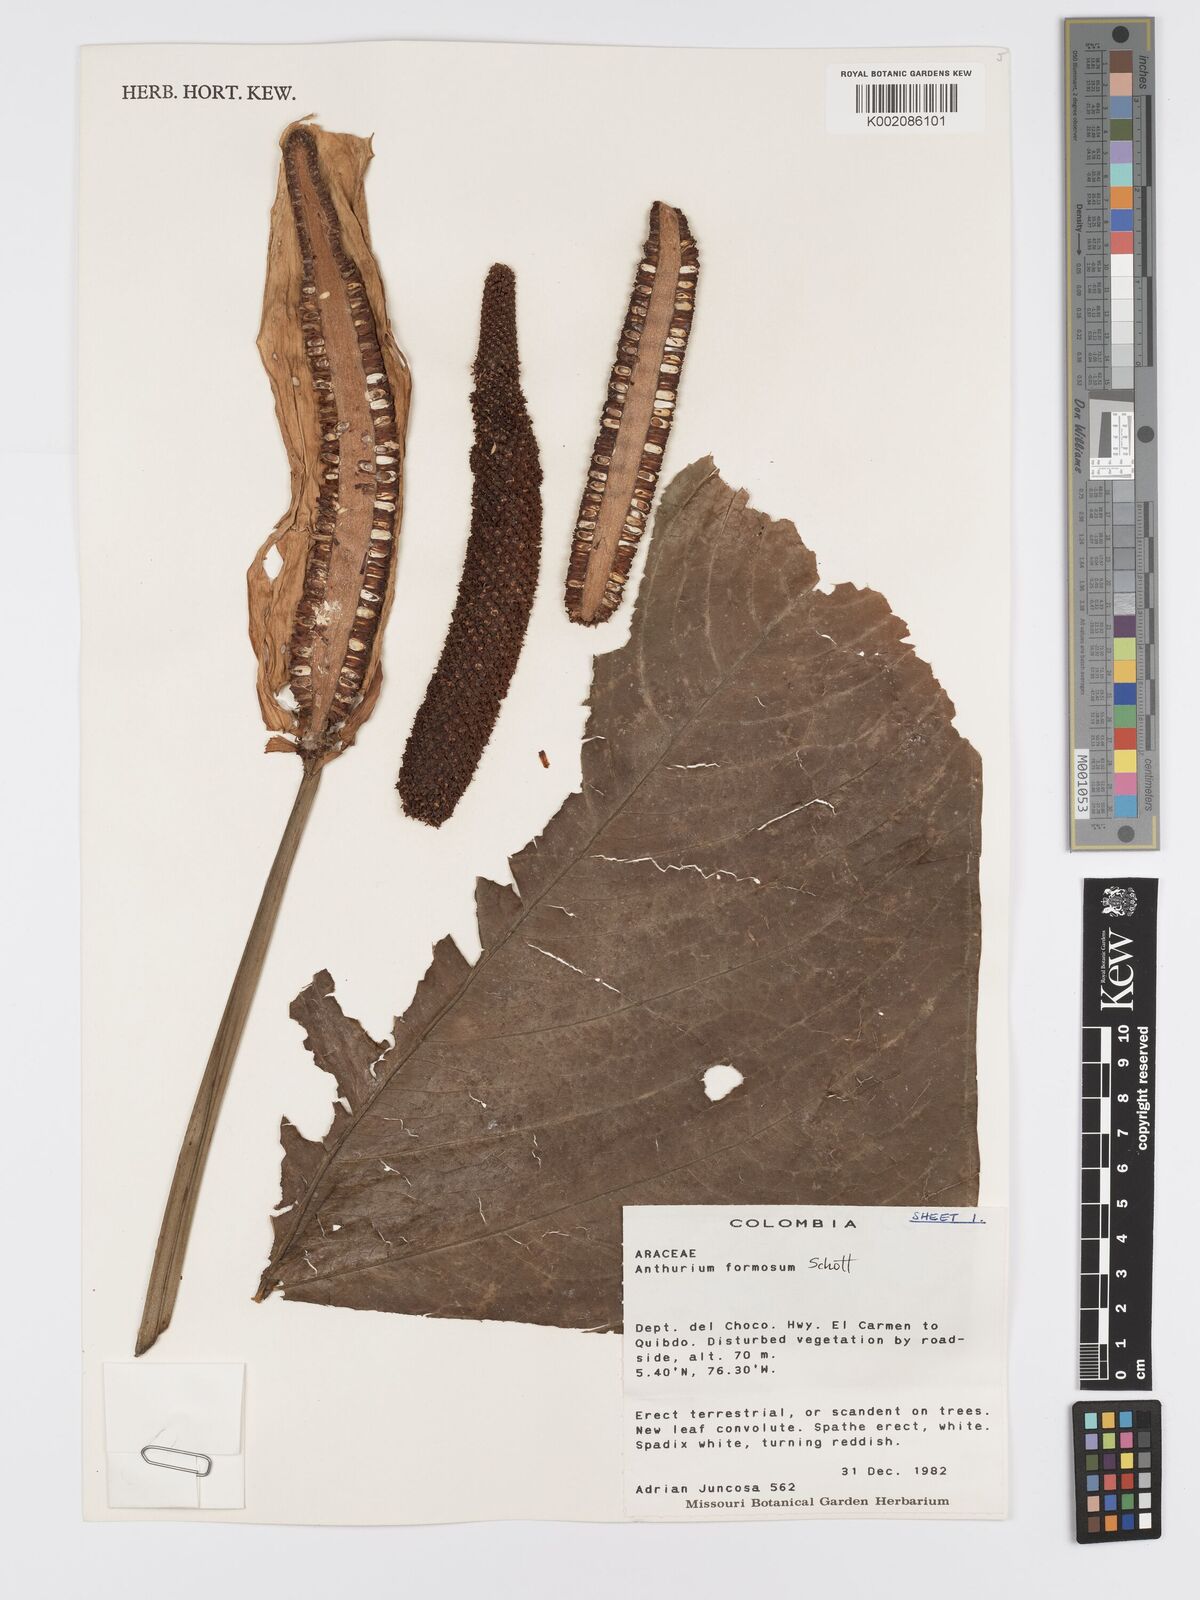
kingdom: Plantae
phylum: Tracheophyta
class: Liliopsida
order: Alismatales
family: Araceae
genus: Anthurium
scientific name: Anthurium formosum
